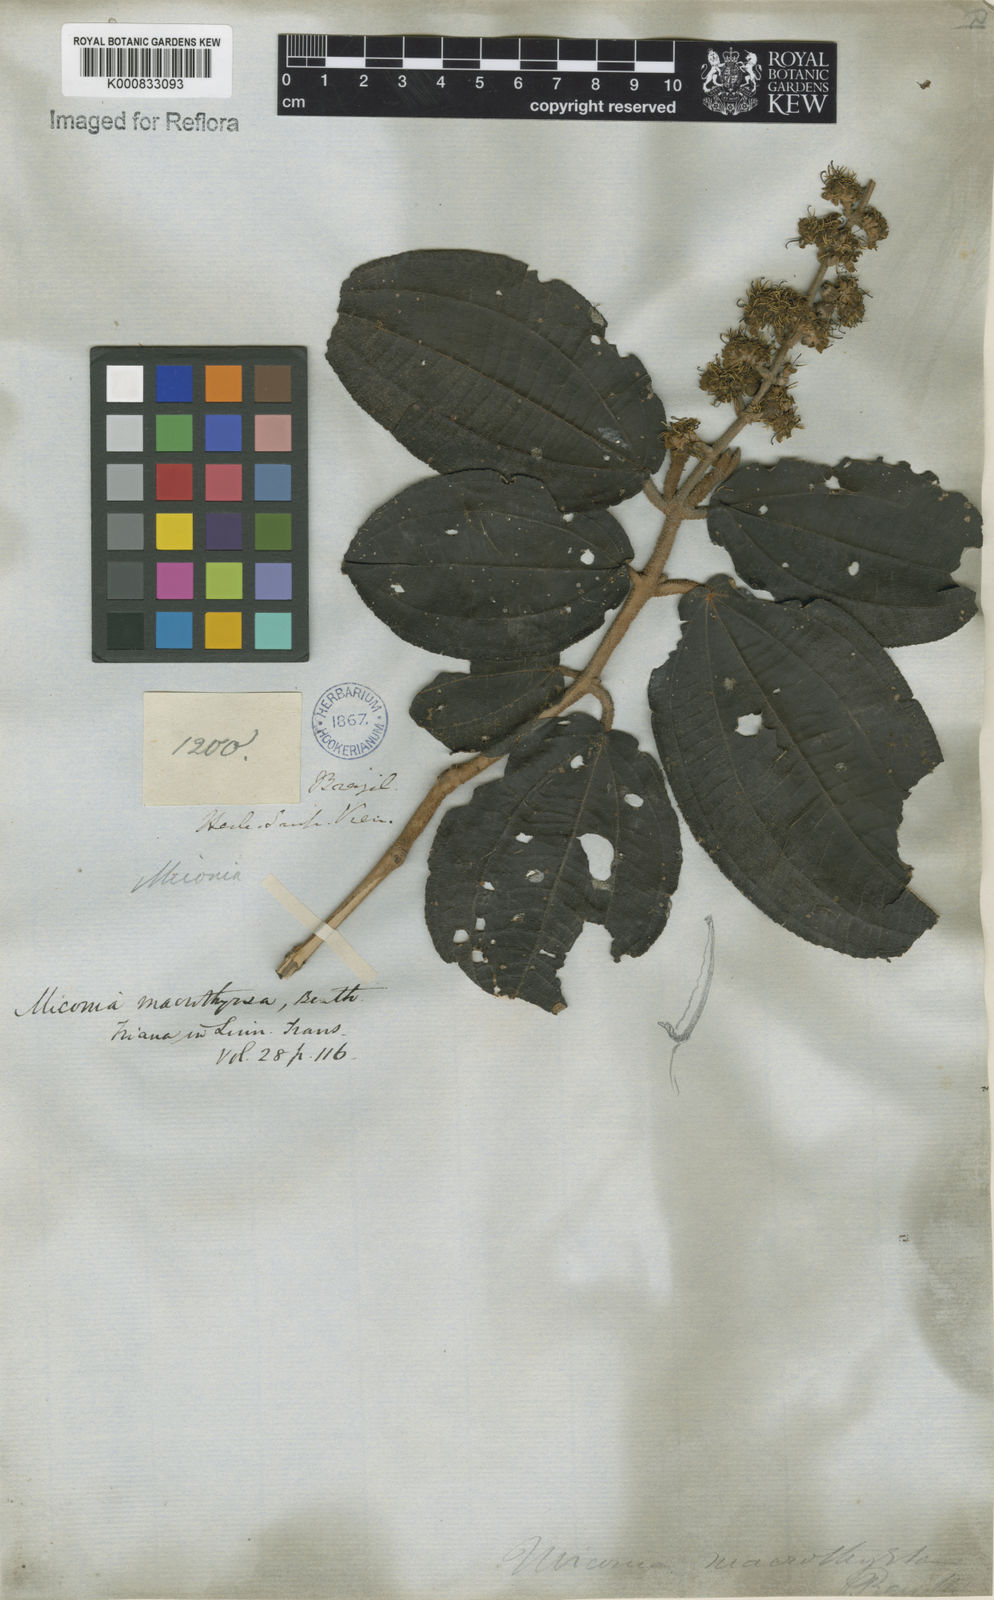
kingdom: Plantae
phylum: Tracheophyta
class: Magnoliopsida
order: Myrtales
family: Melastomataceae
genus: Miconia
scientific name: Miconia macrothyrsa
